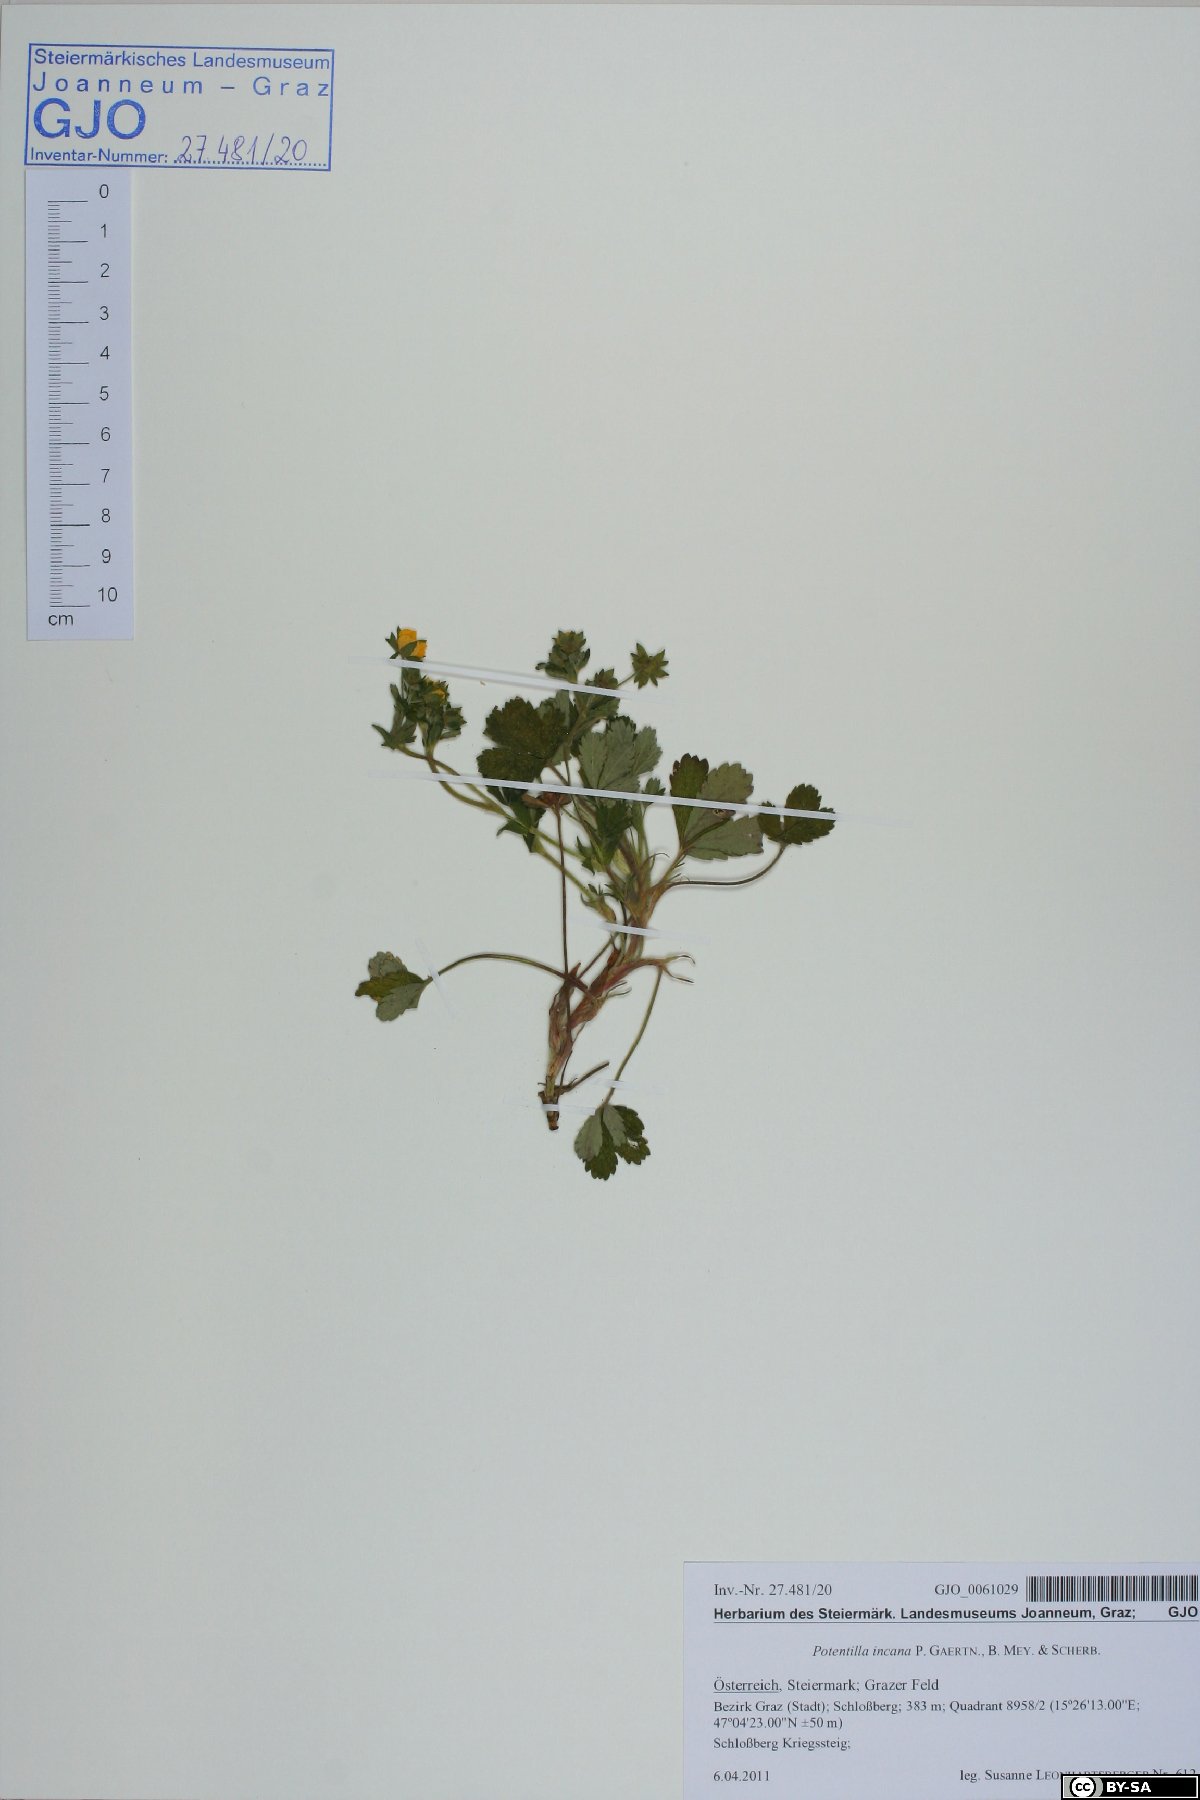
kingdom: Plantae
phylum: Tracheophyta
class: Magnoliopsida
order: Rosales
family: Rosaceae
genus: Potentilla
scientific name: Potentilla cinerea
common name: Ashy cinquefoil
